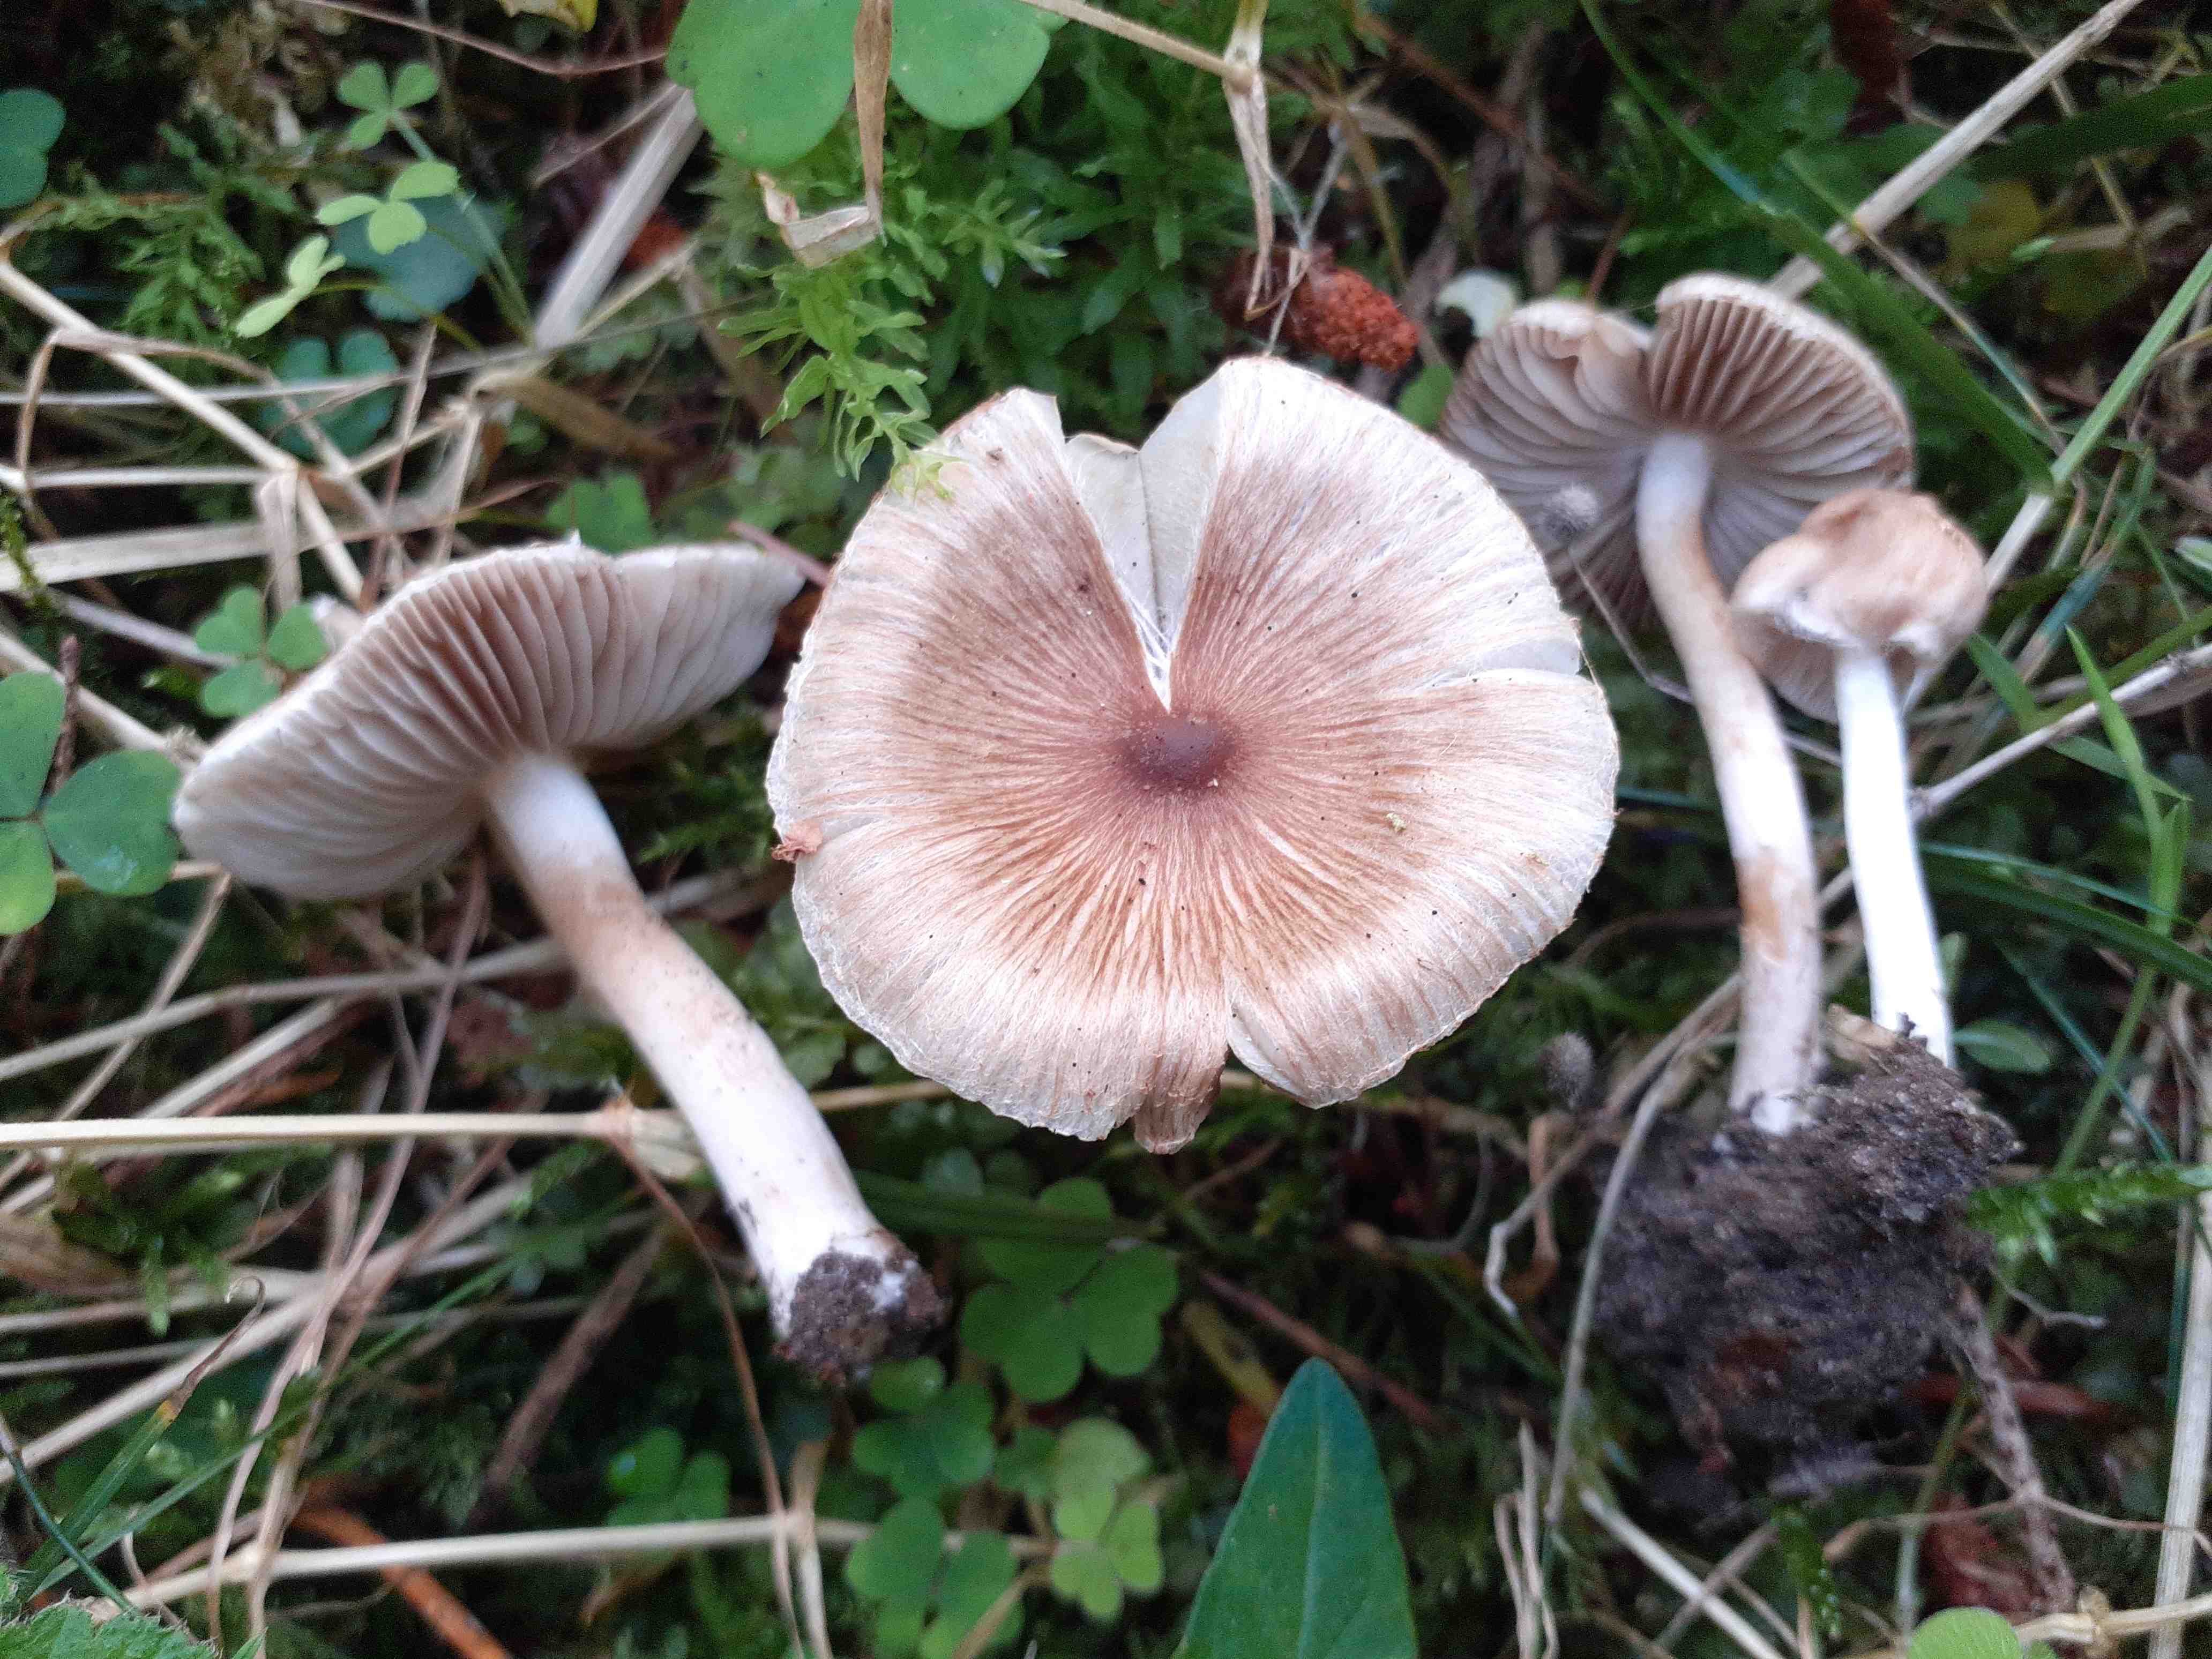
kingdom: Fungi
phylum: Basidiomycota
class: Agaricomycetes
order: Agaricales
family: Inocybaceae
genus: Inocybe
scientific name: Inocybe fuscidula
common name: brunfibret trævlhat
